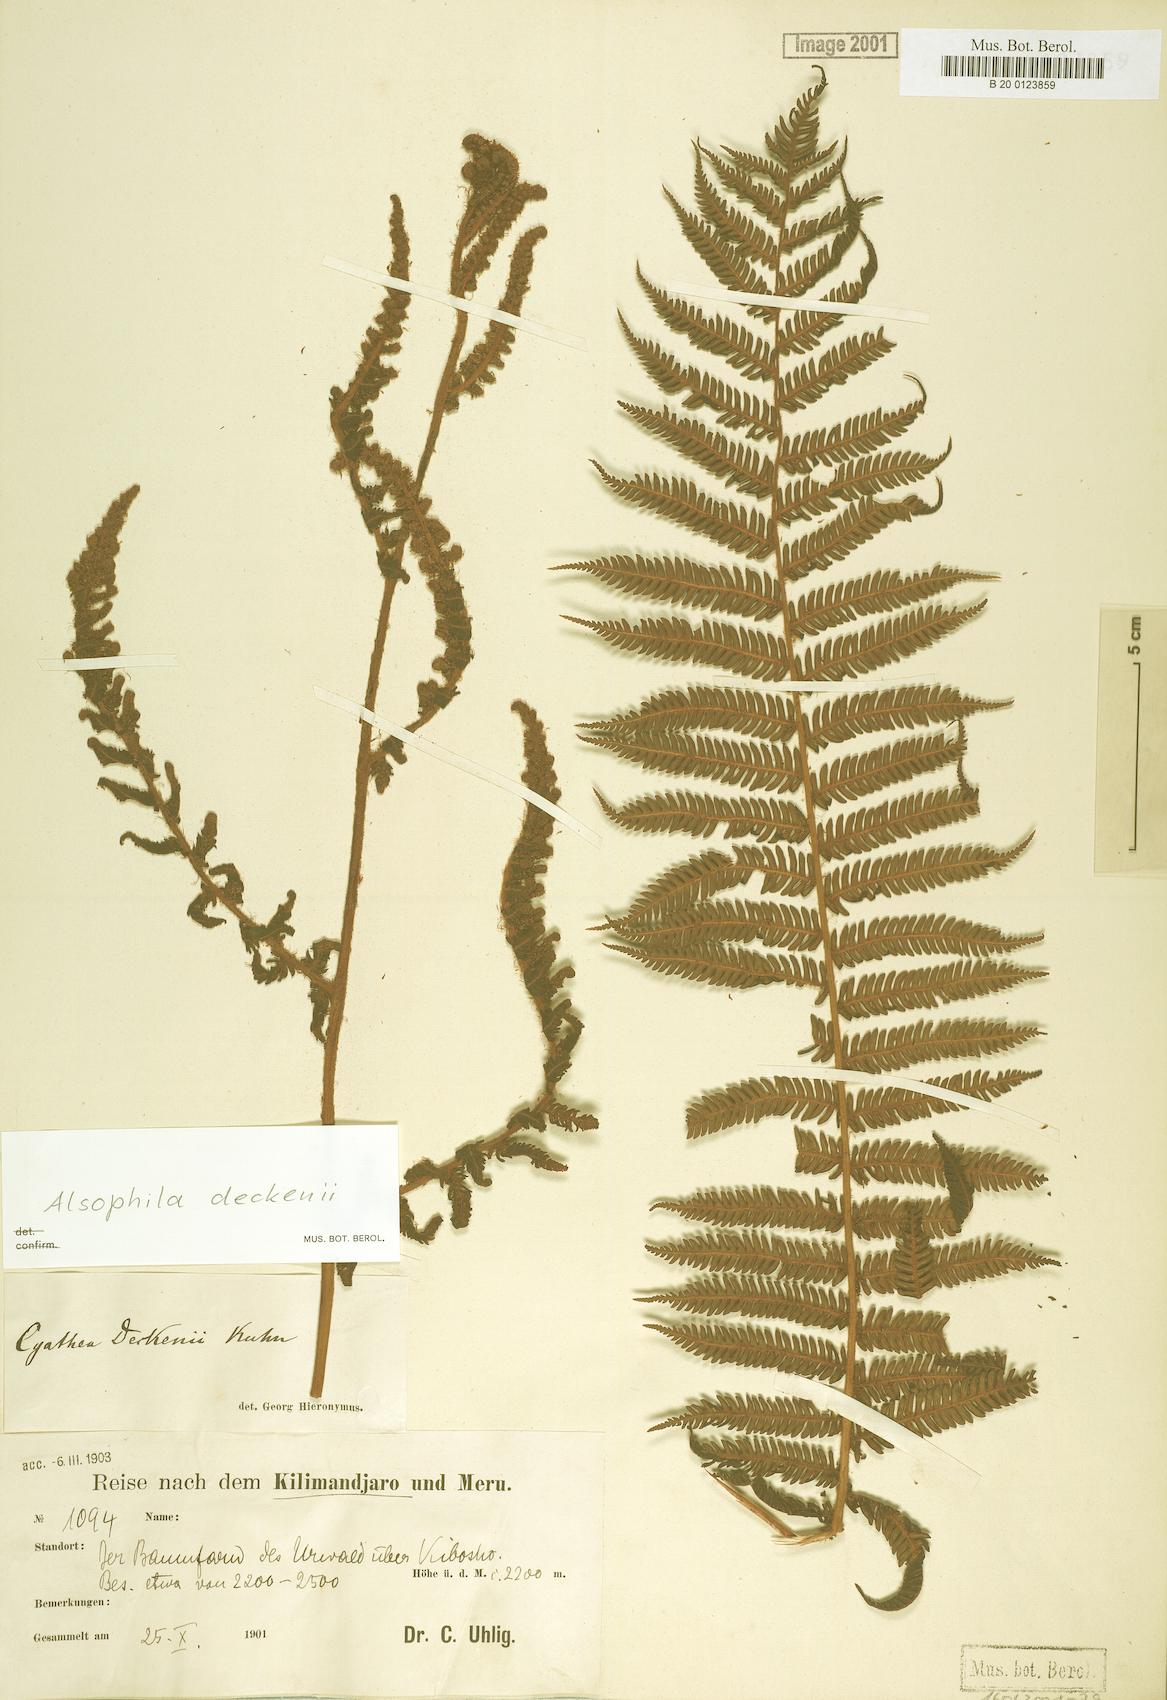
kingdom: Plantae
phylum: Tracheophyta
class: Polypodiopsida
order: Cyatheales
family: Cyatheaceae
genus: Alsophila
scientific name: Alsophila deckenii
